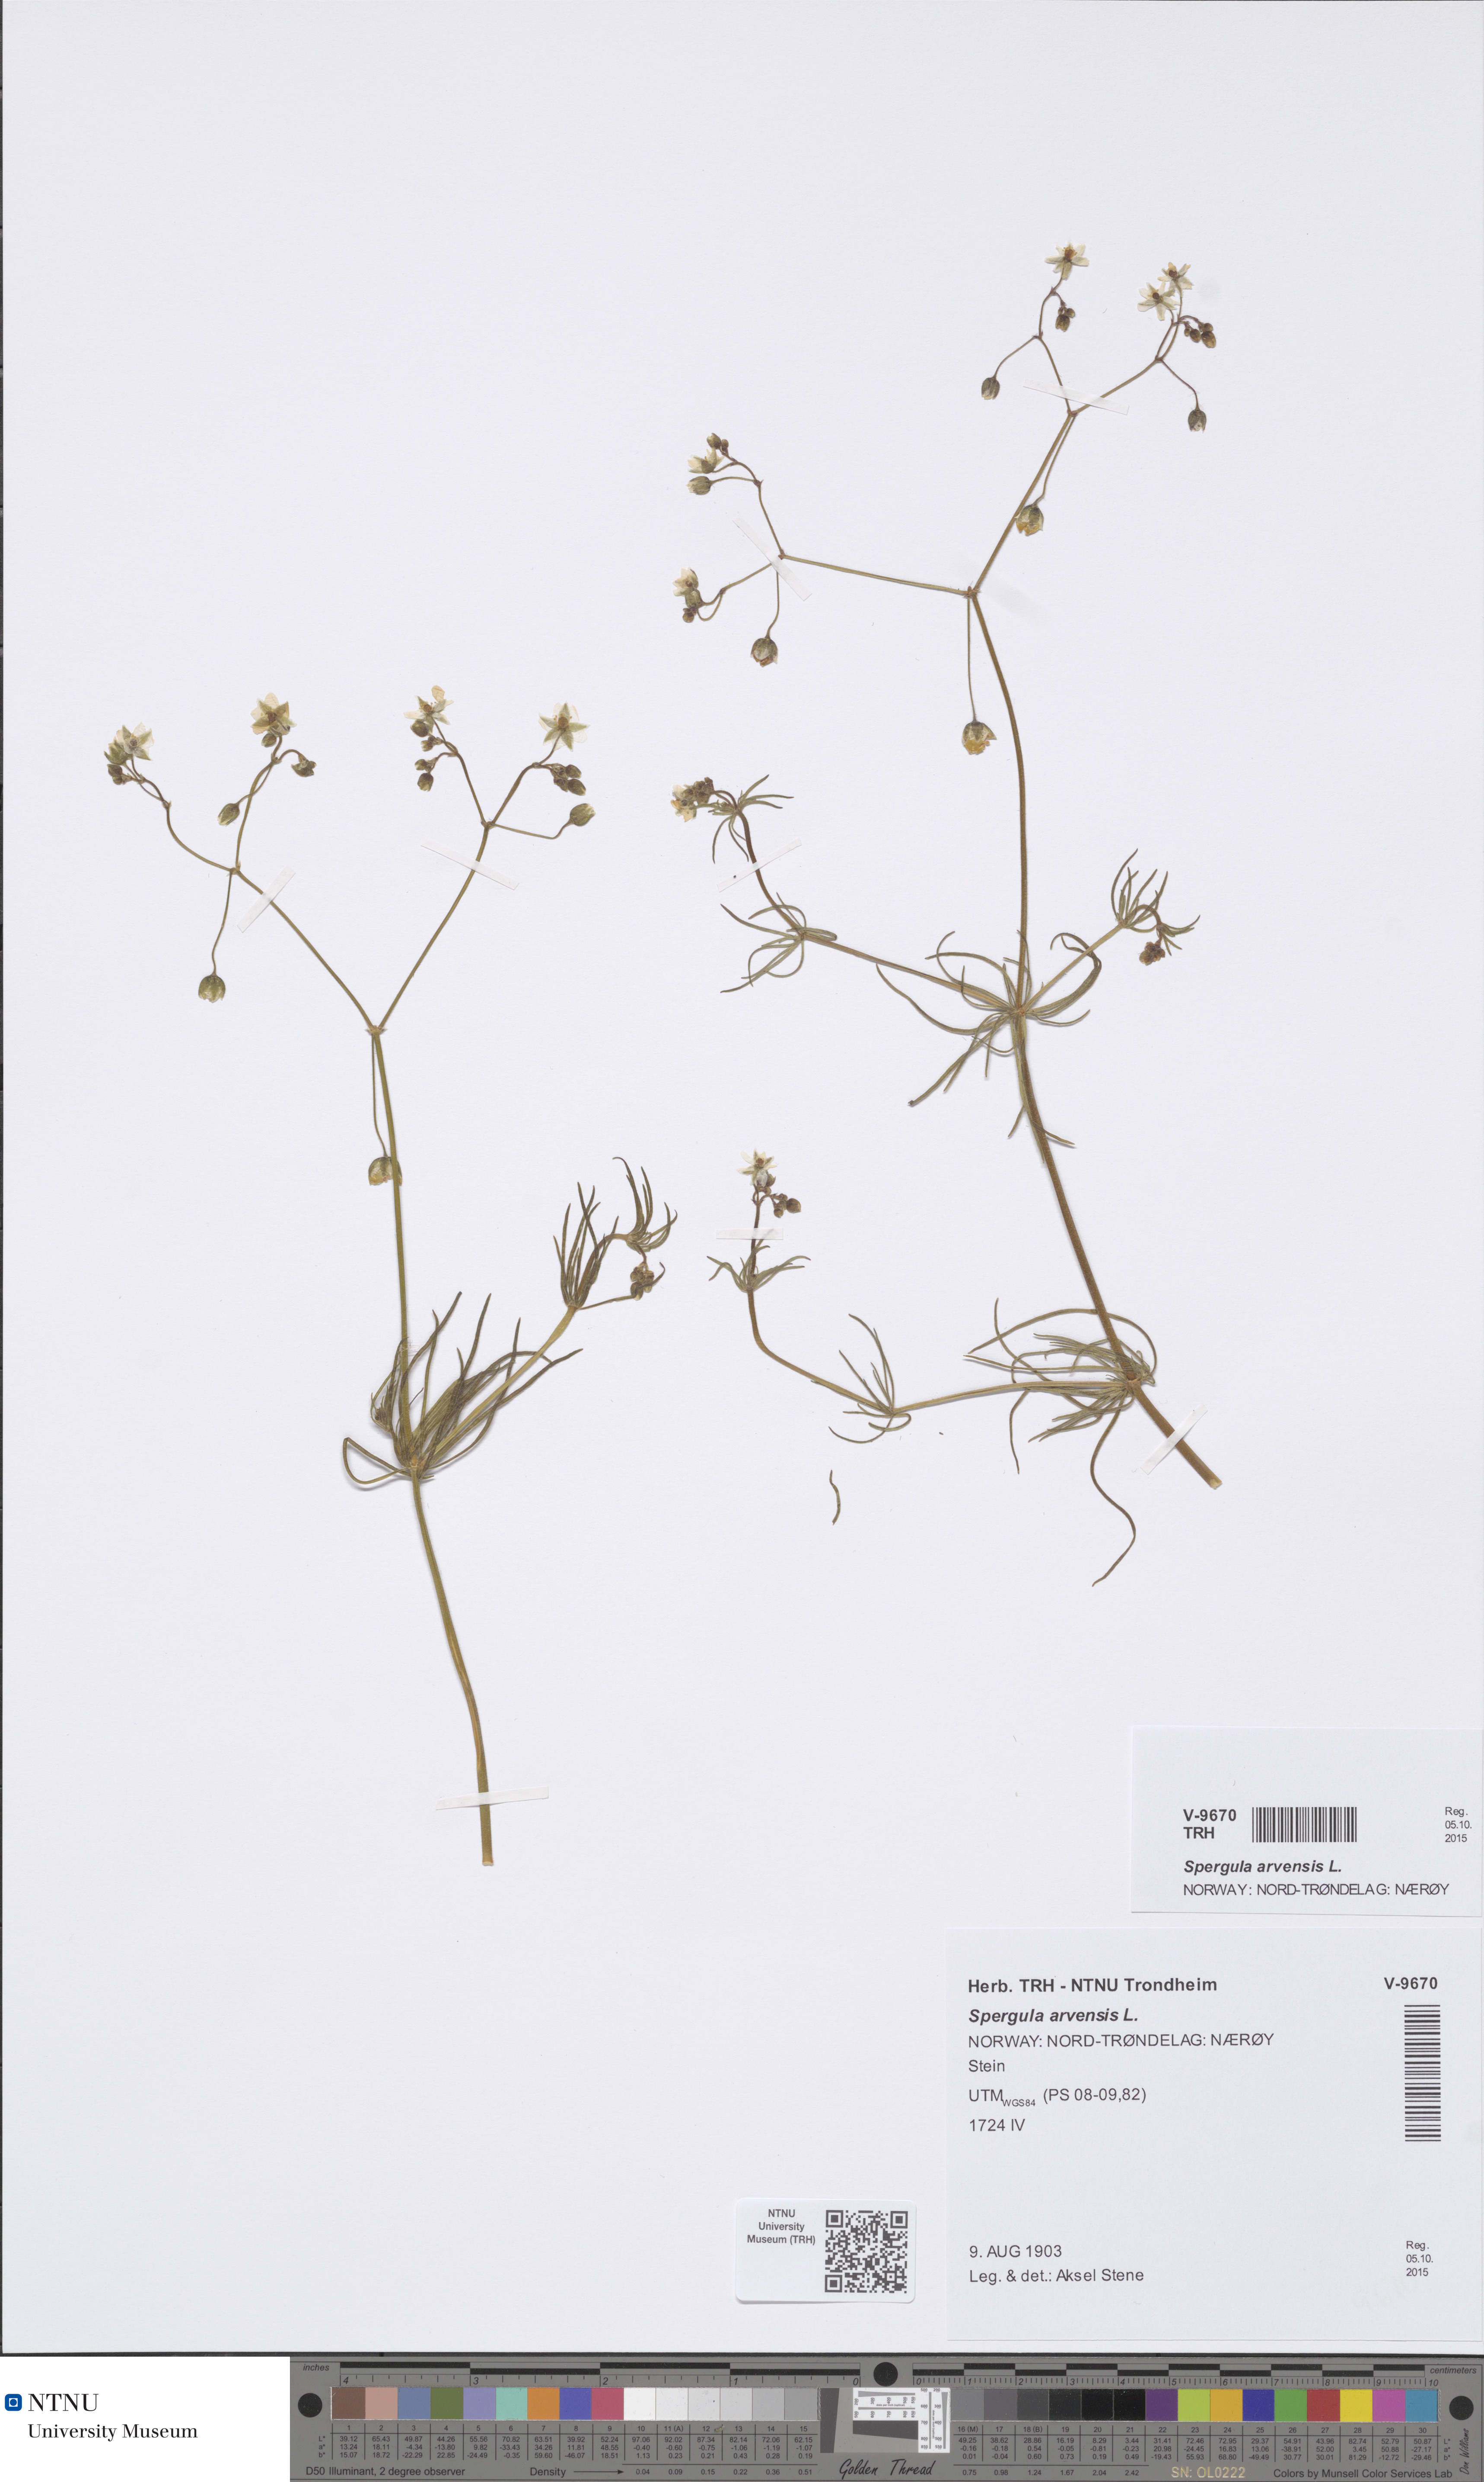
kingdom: Plantae
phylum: Tracheophyta
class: Magnoliopsida
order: Caryophyllales
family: Caryophyllaceae
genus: Spergula
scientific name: Spergula arvensis
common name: Corn spurrey
